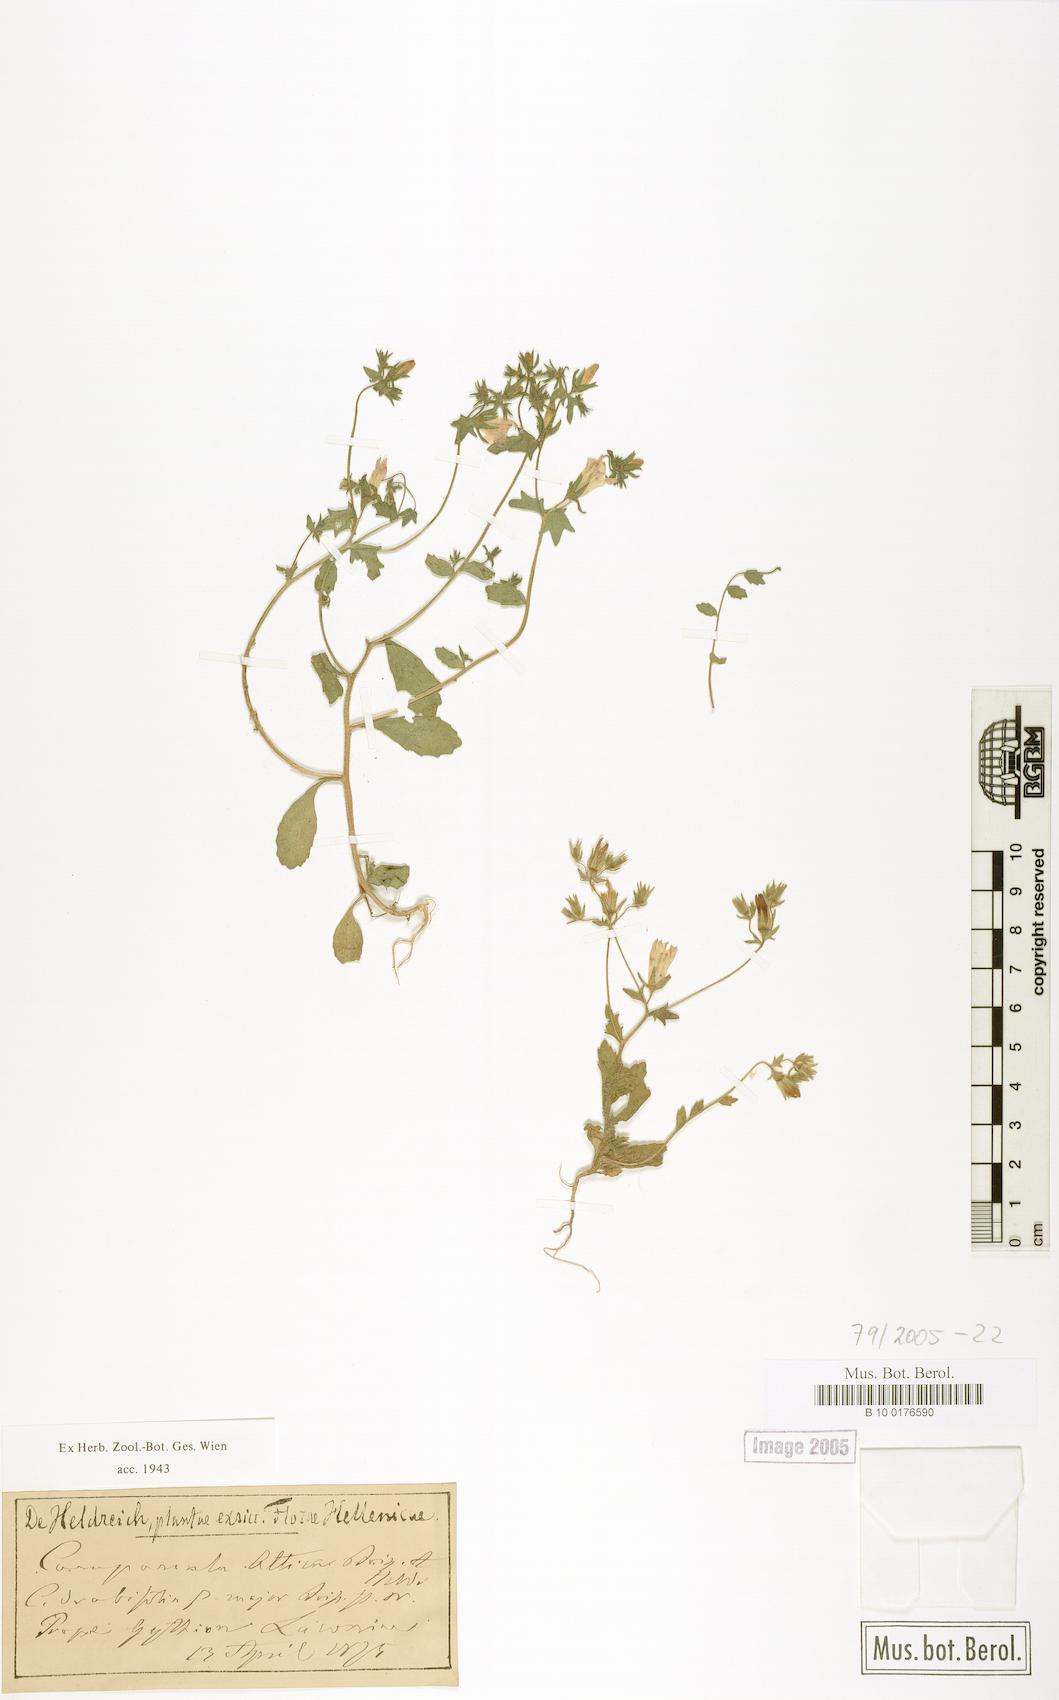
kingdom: Plantae
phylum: Tracheophyta
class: Magnoliopsida
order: Asterales
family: Campanulaceae
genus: Campanula
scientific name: Campanula drabifolia
